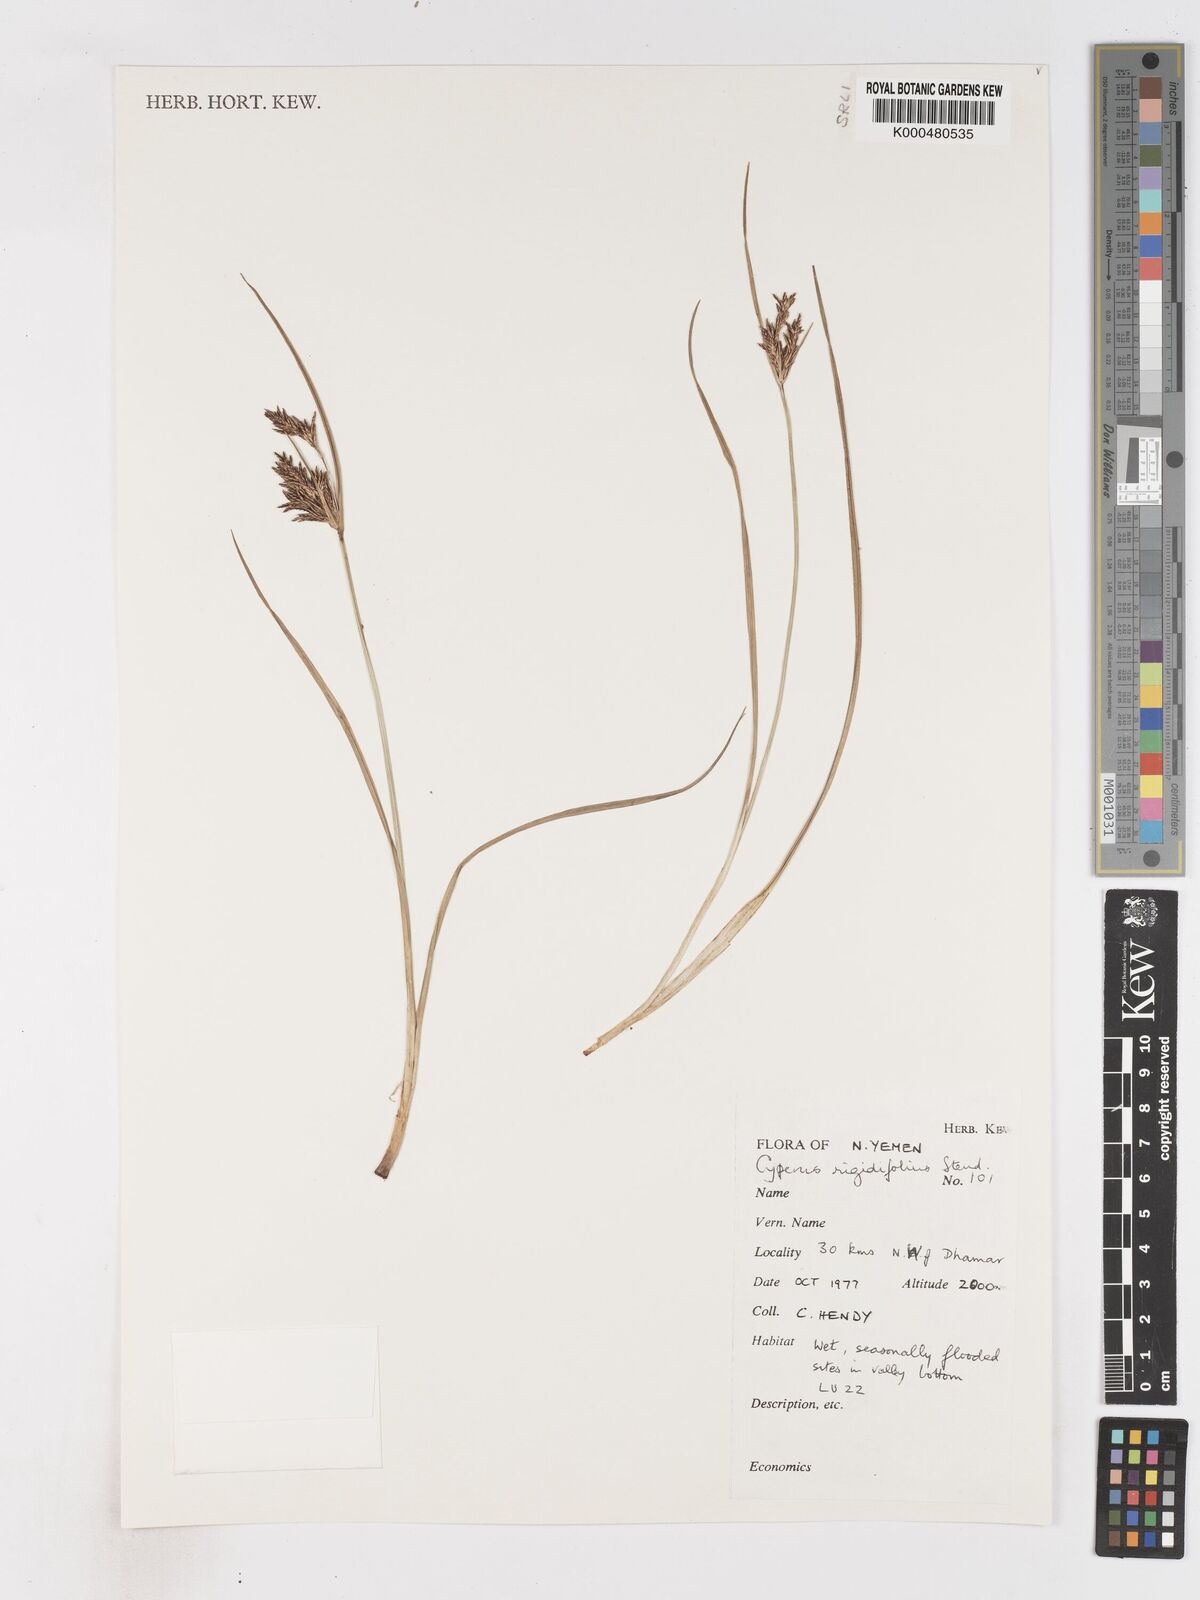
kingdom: Plantae
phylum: Tracheophyta
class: Liliopsida
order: Poales
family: Cyperaceae
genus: Cyperus
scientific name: Cyperus rigidifolius
